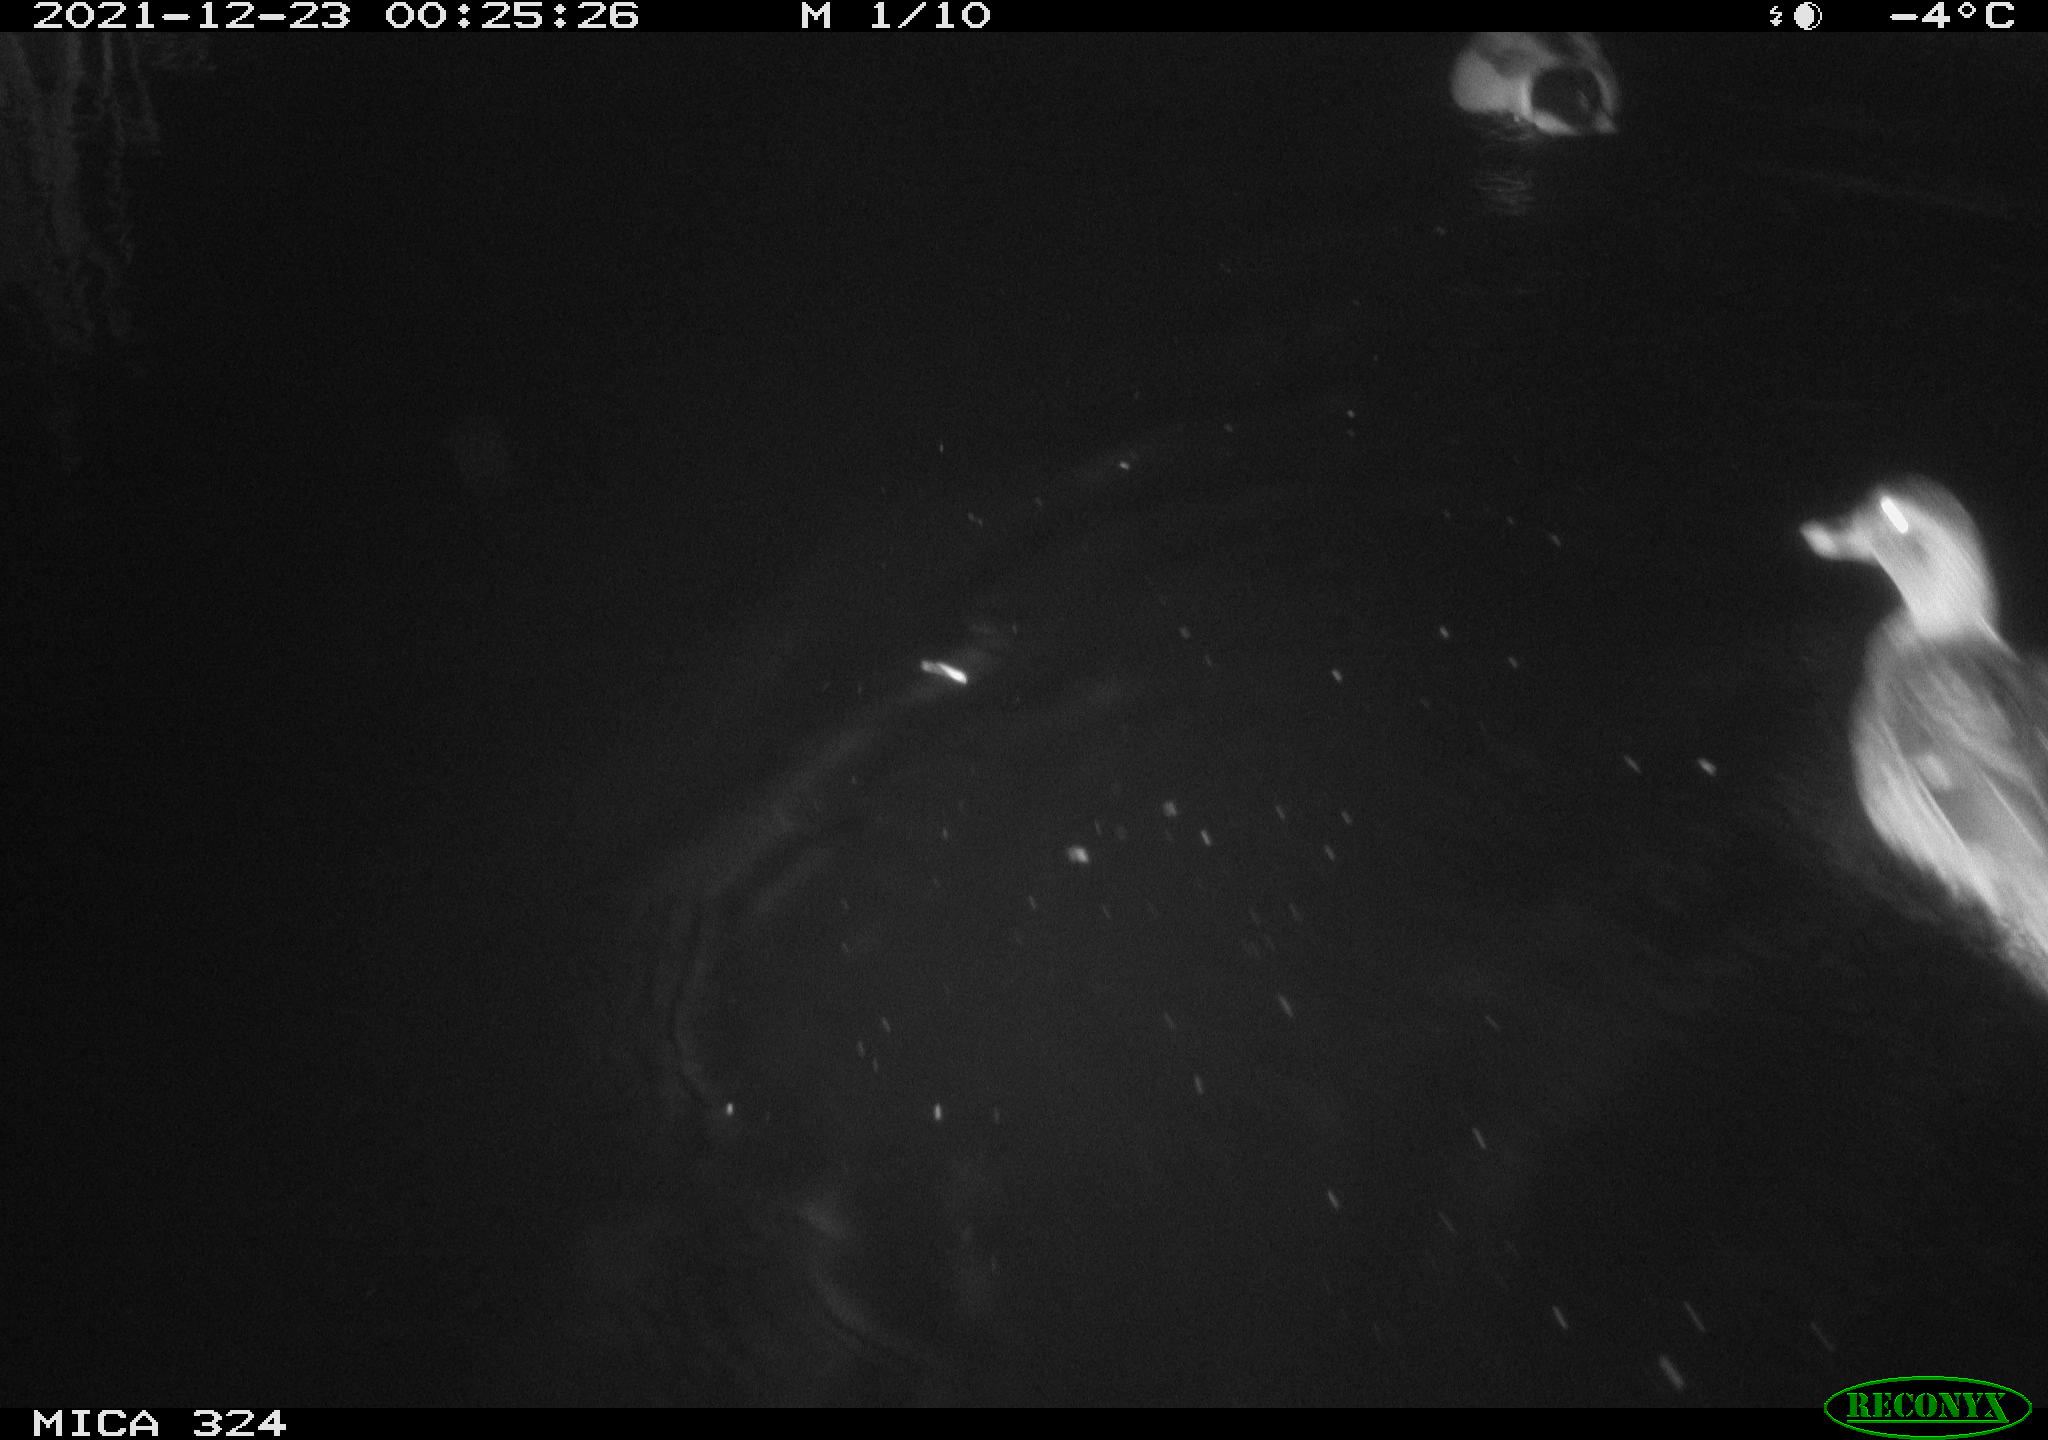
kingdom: Animalia
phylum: Chordata
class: Aves
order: Anseriformes
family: Anatidae
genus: Anas
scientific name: Anas platyrhynchos
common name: Mallard
